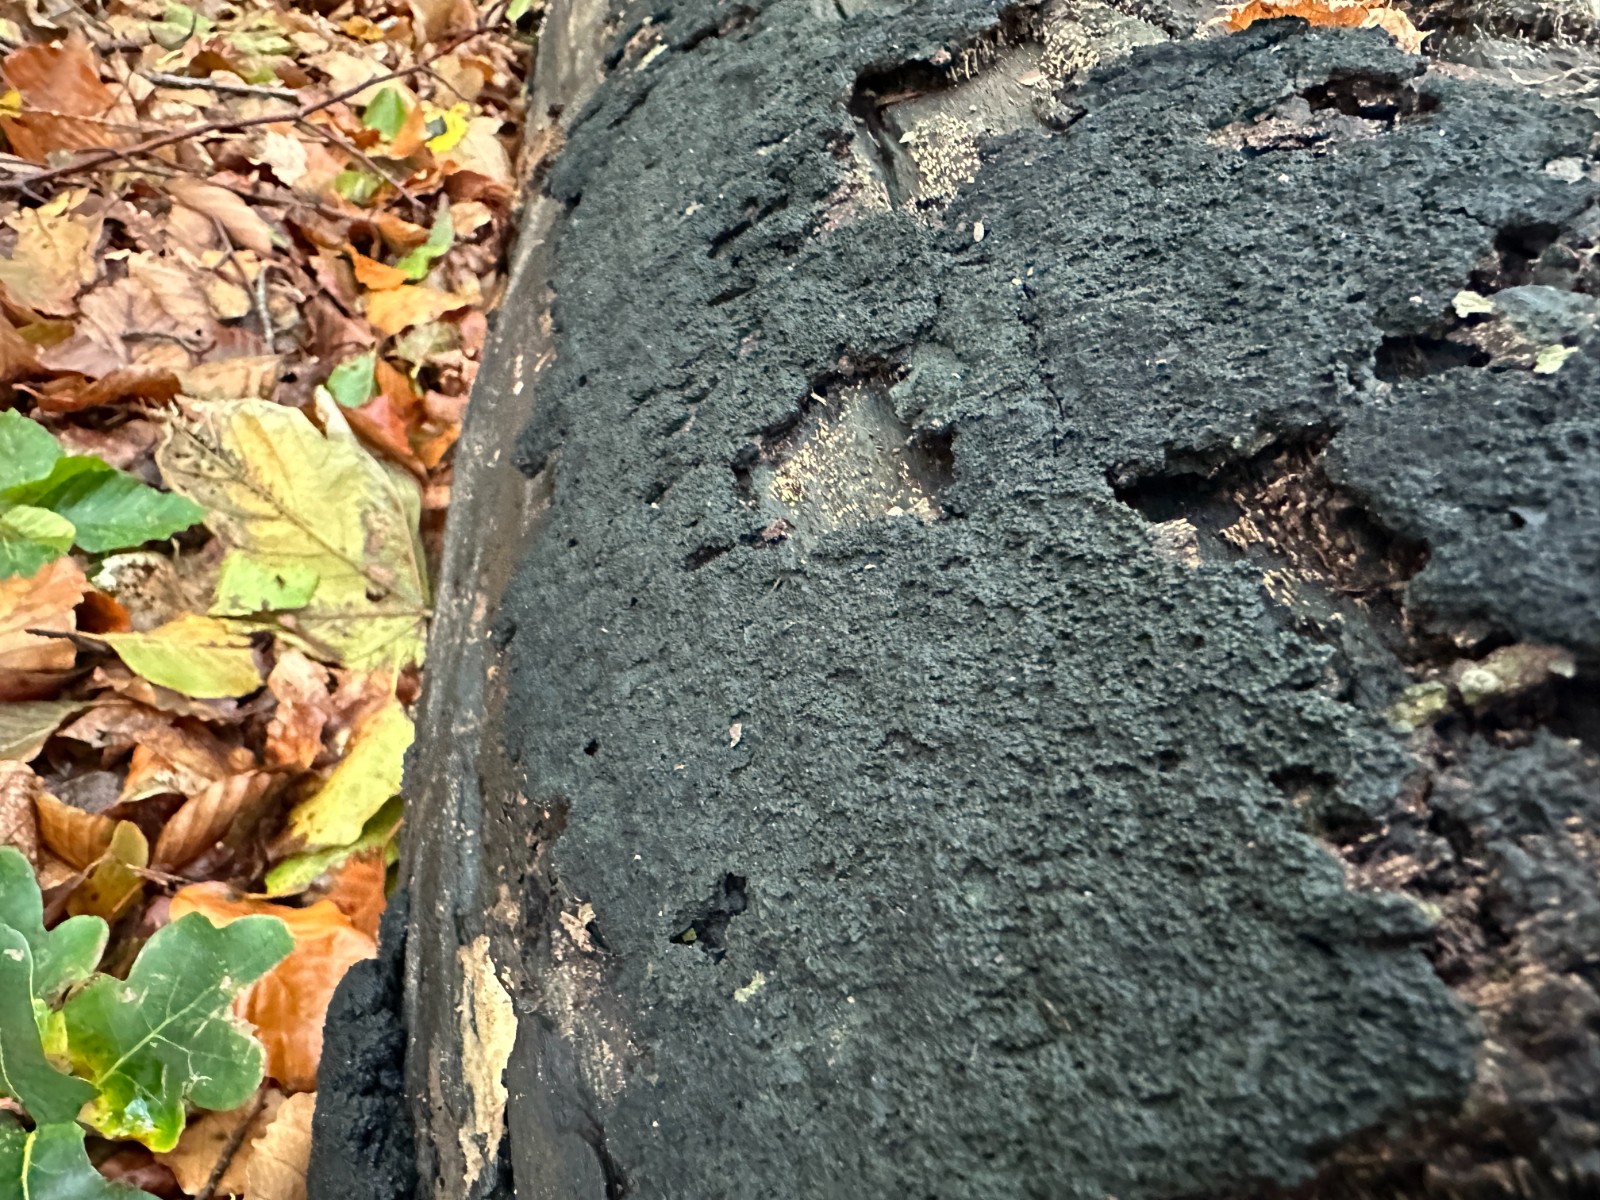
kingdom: Fungi
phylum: Ascomycota
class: Sordariomycetes
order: Xylariales
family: Diatrypaceae
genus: Eutypa
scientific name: Eutypa spinosa
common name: grov kulskorpe
